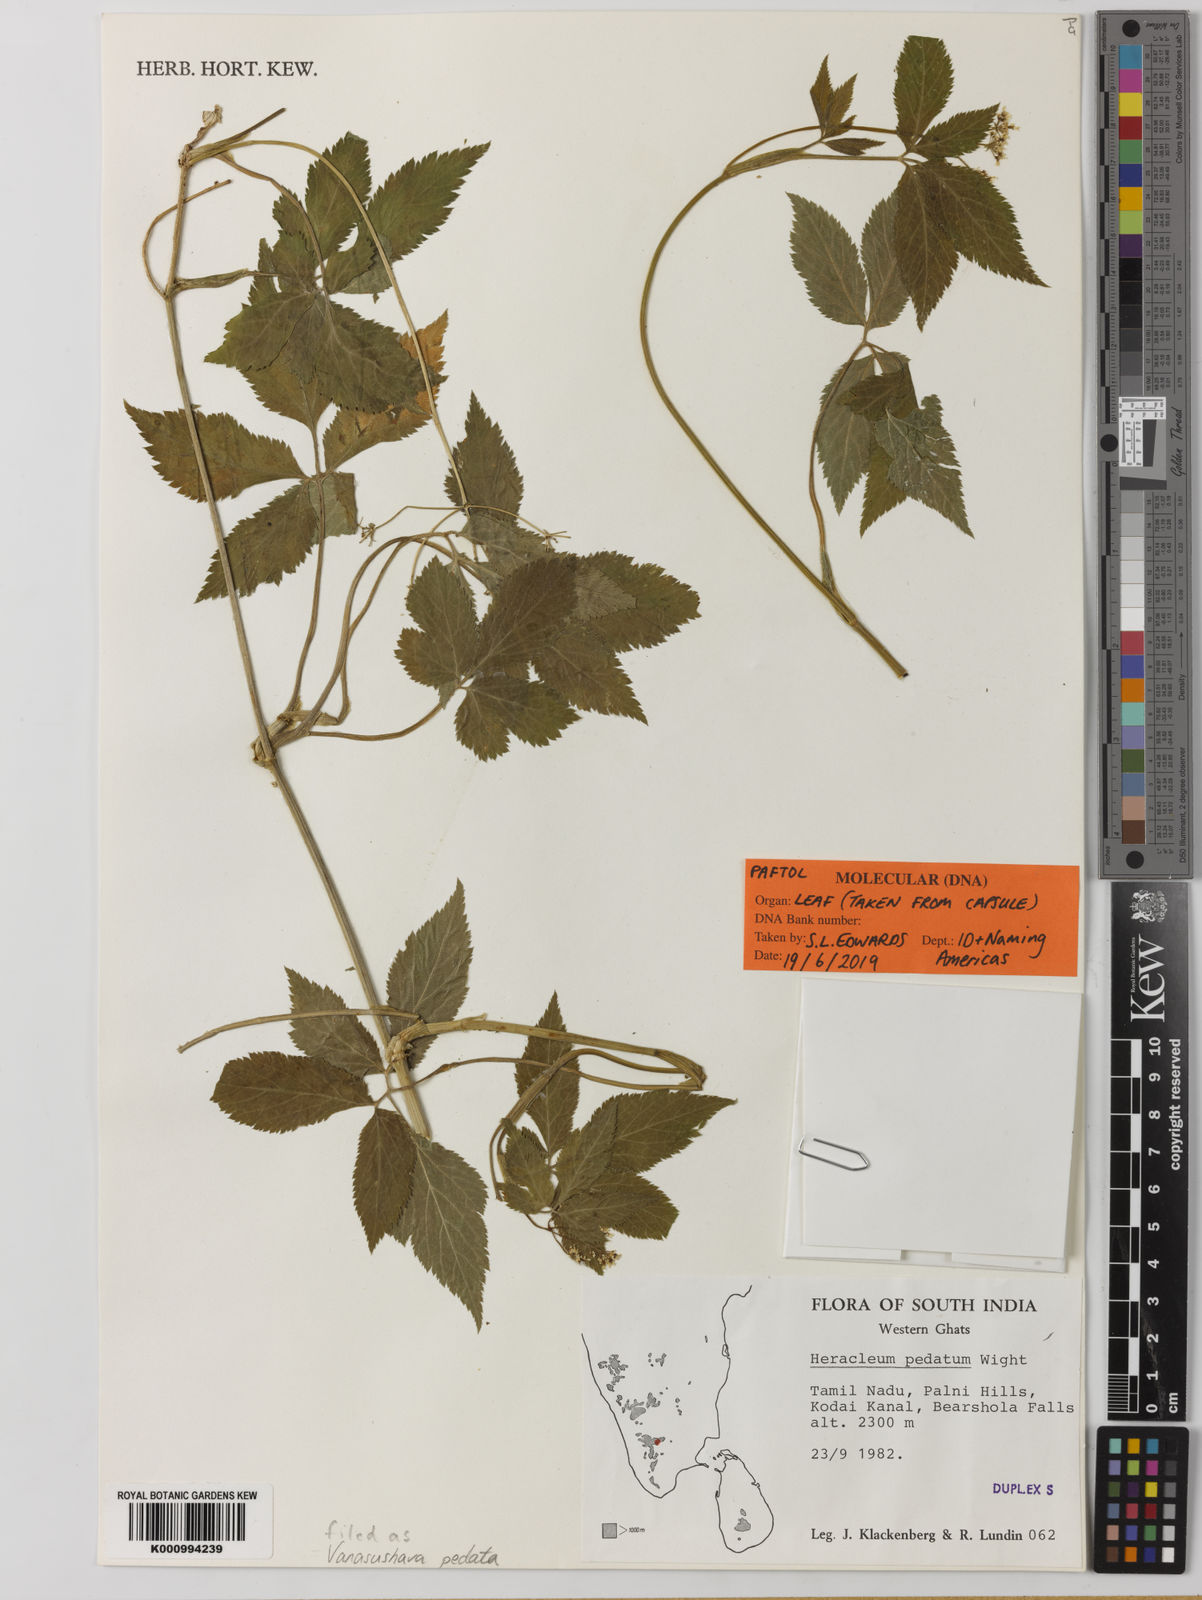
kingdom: Plantae
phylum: Tracheophyta
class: Magnoliopsida
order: Apiales
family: Apiaceae
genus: Vanasushava
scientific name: Vanasushava pedata
